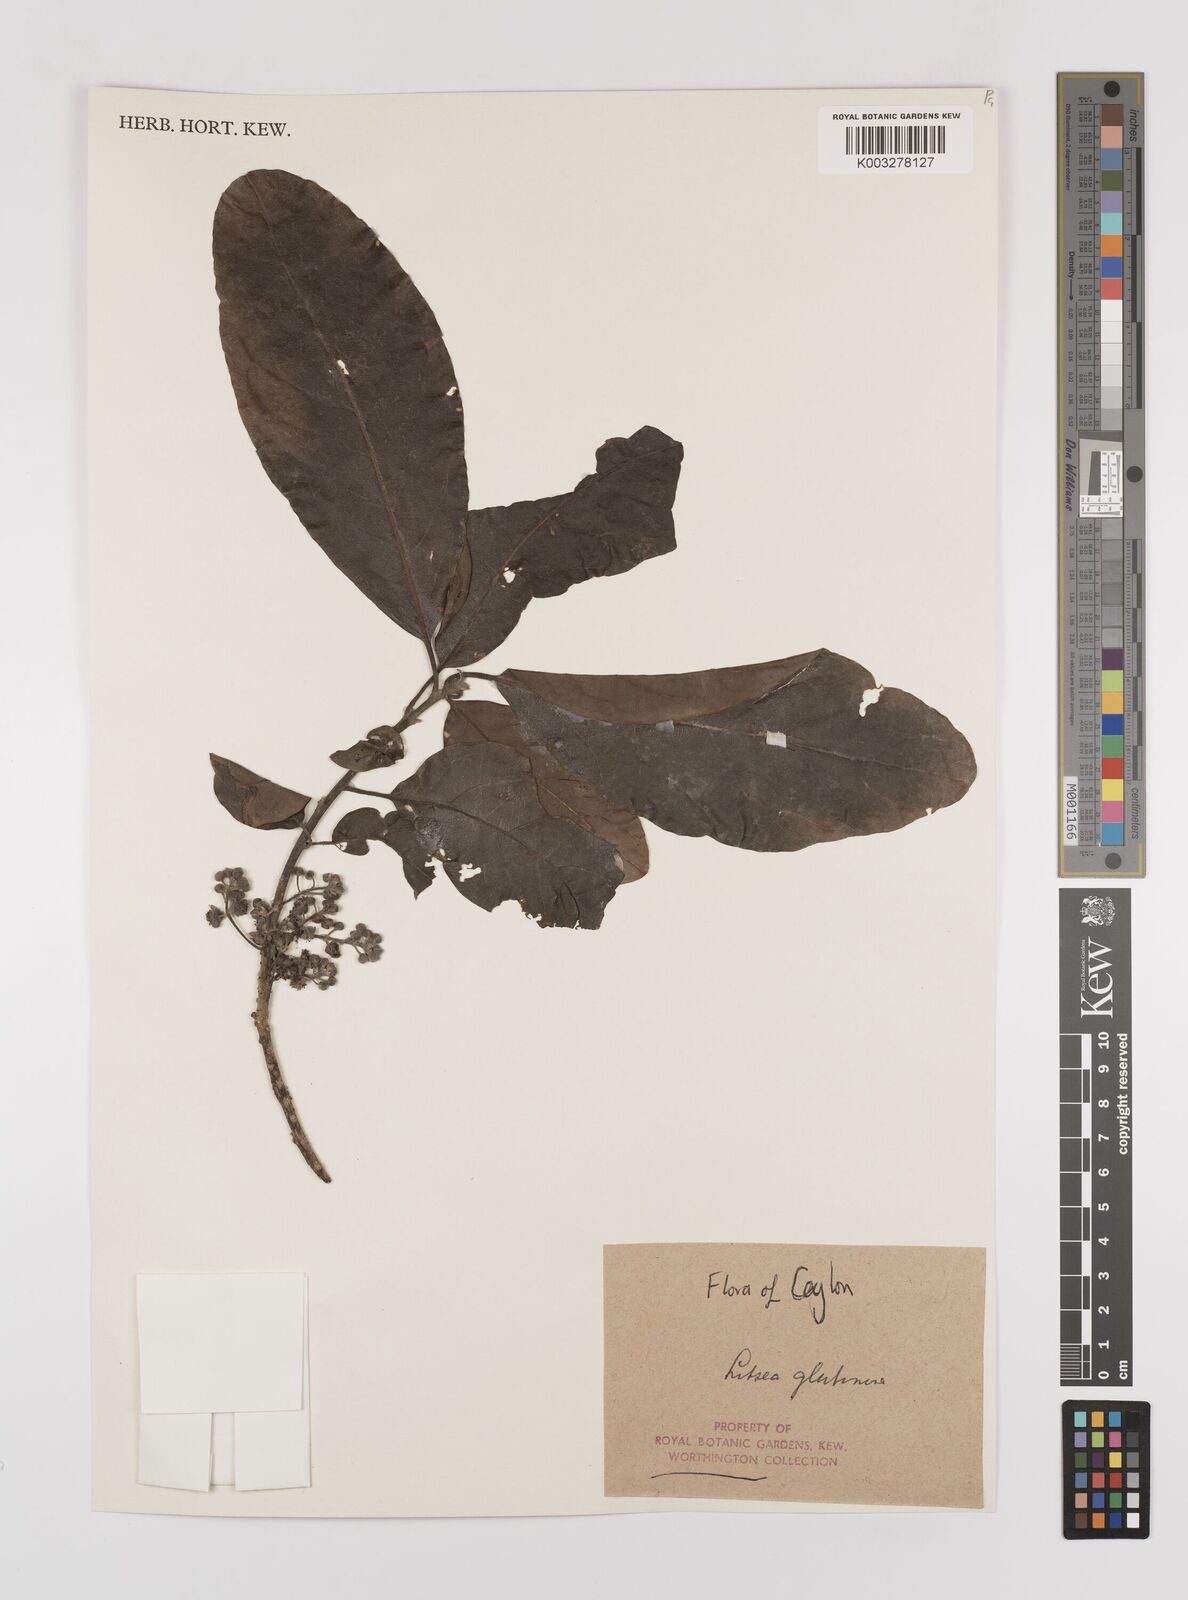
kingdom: Plantae
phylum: Tracheophyta
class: Magnoliopsida
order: Laurales
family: Lauraceae
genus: Litsea
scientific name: Litsea
